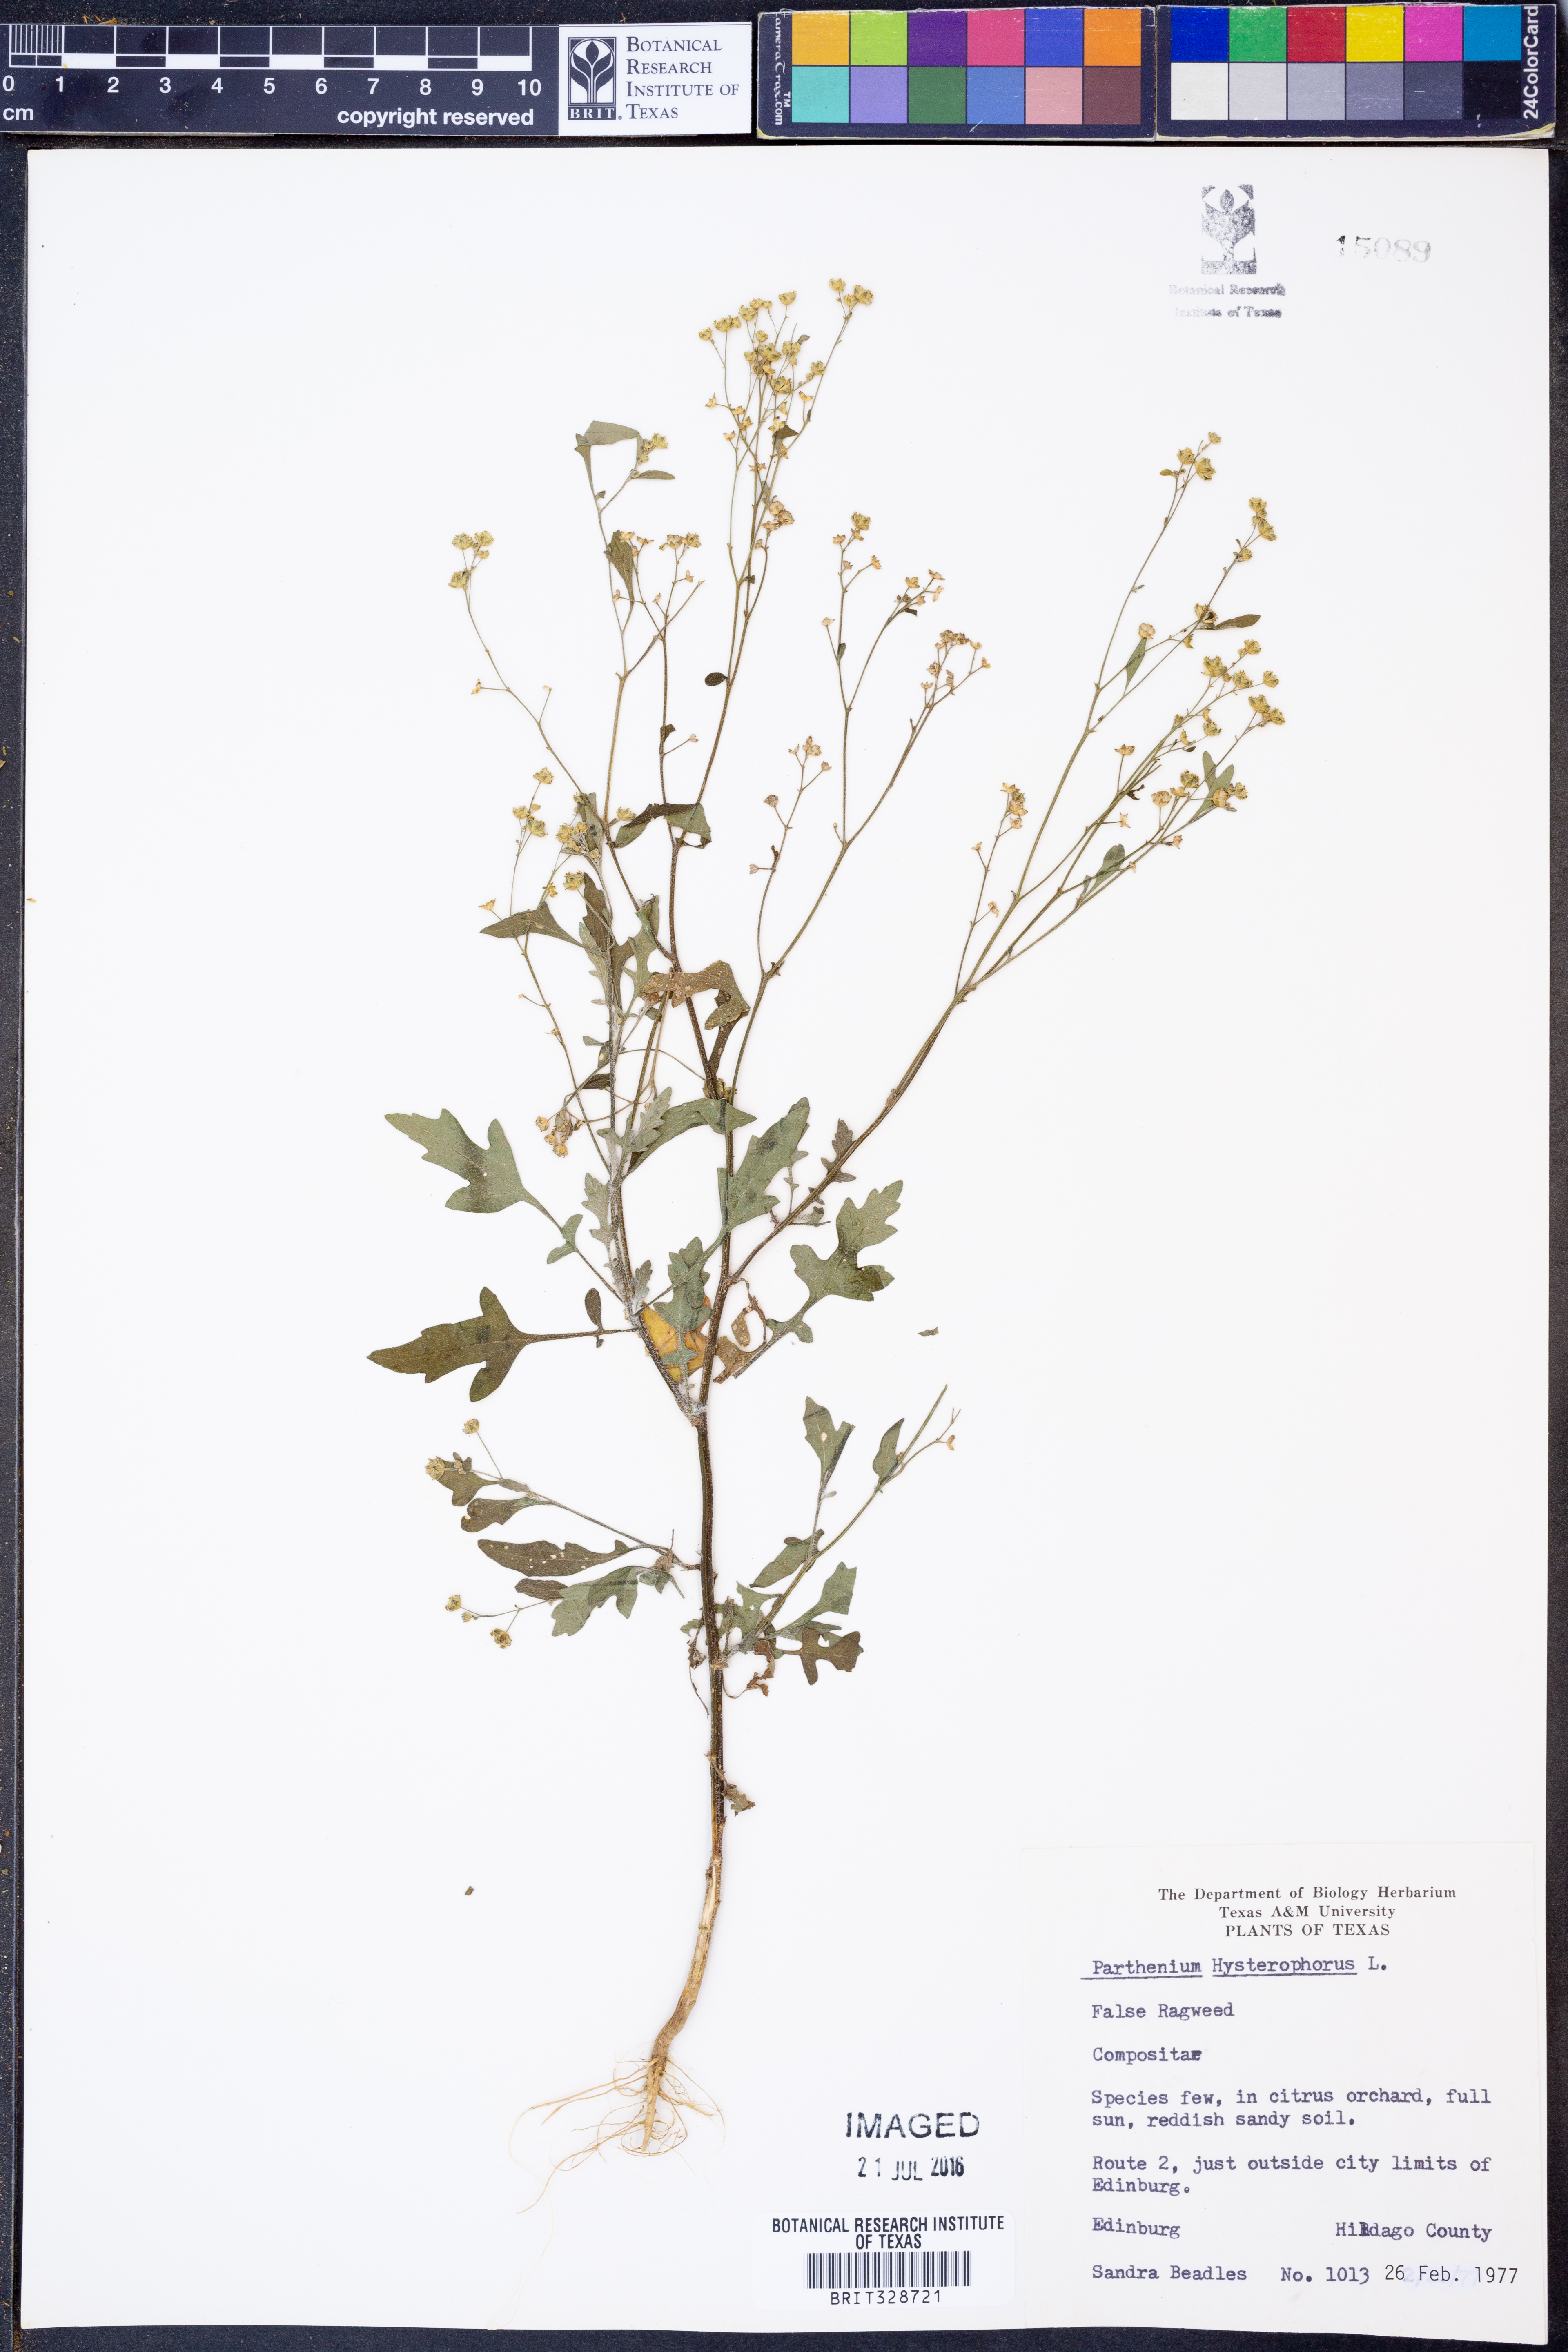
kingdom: Plantae
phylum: Tracheophyta
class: Magnoliopsida
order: Asterales
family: Asteraceae
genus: Parthenium
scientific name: Parthenium hysterophorus
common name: Santa maria feverfew
